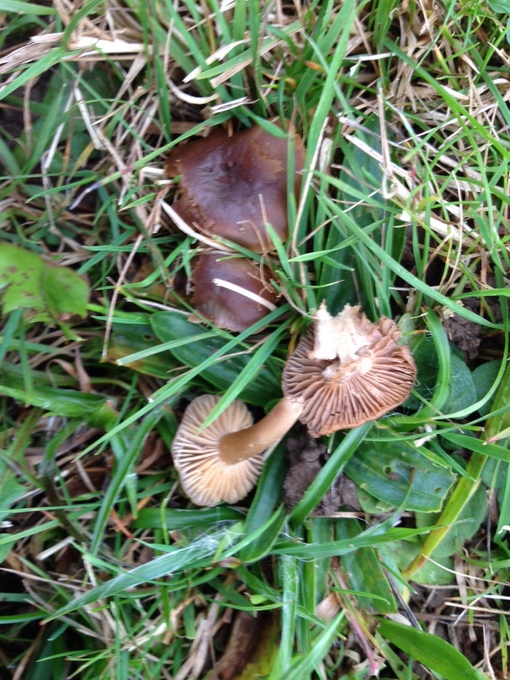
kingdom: Fungi
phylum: Basidiomycota
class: Agaricomycetes
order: Agaricales
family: Clavariaceae
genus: Camarophyllopsis
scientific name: Camarophyllopsis schulzeri
